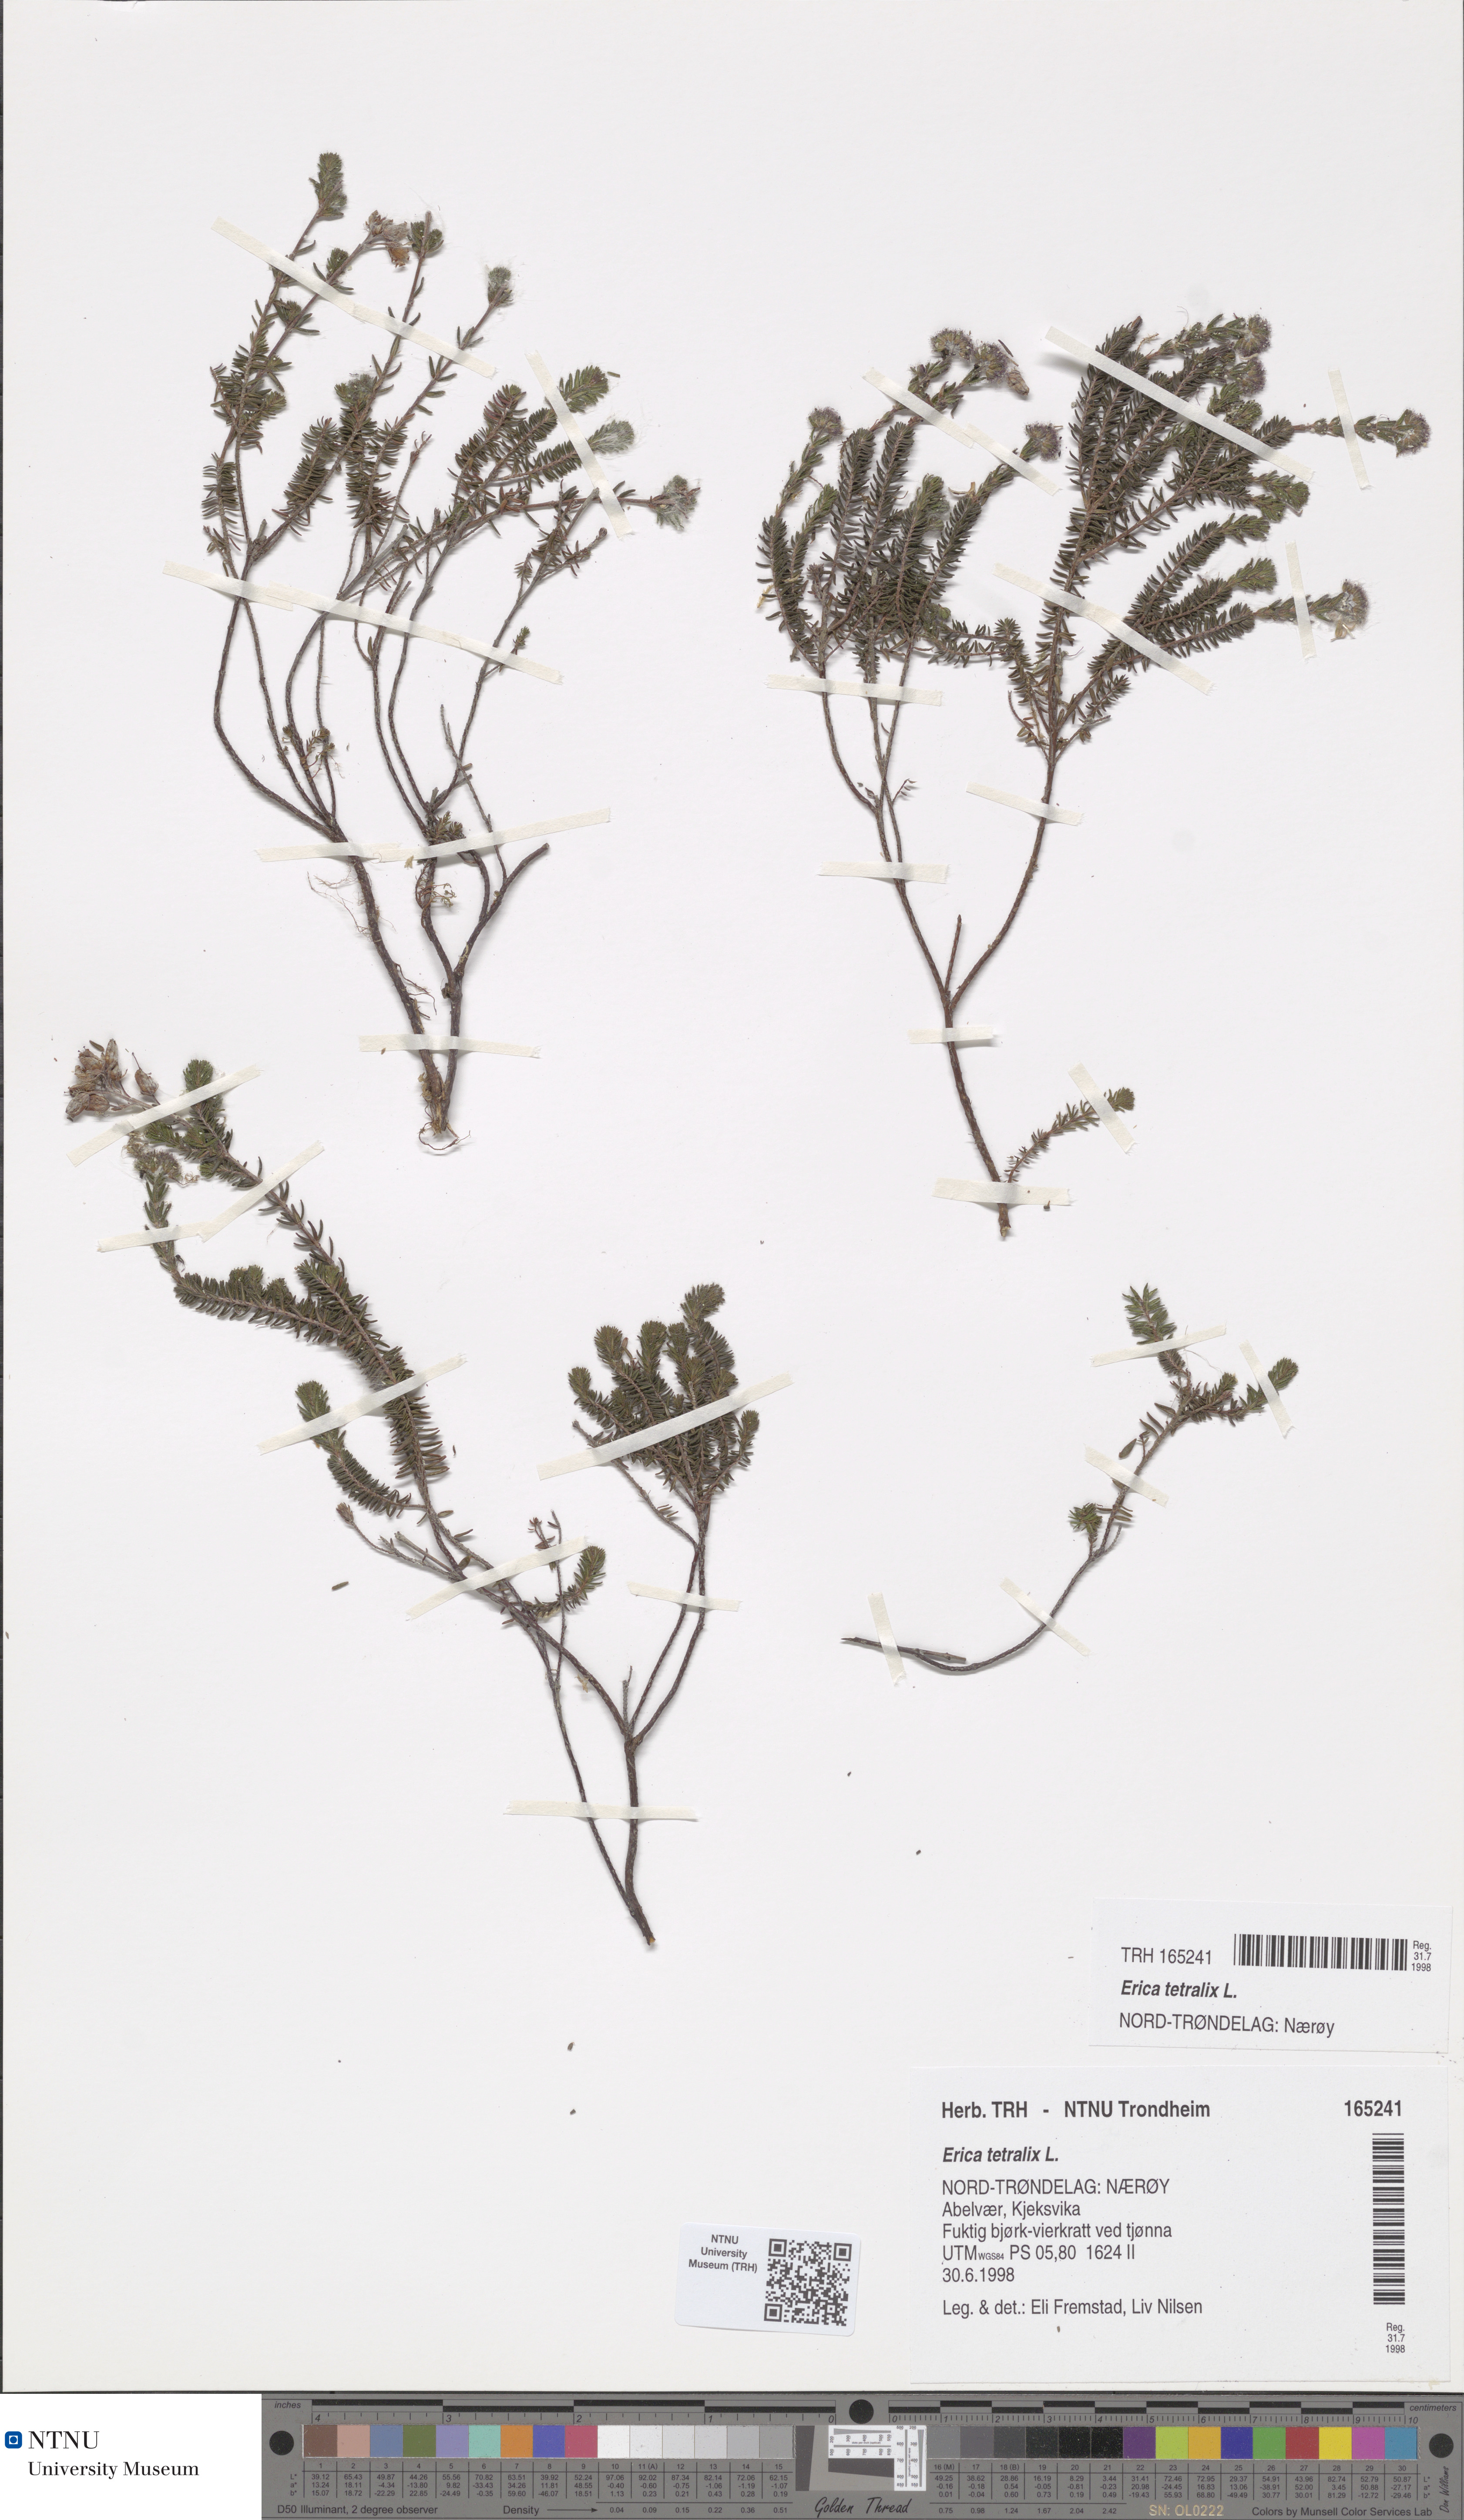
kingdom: Plantae
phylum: Tracheophyta
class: Magnoliopsida
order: Ericales
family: Ericaceae
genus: Erica
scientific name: Erica tetralix
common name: Cross-leaved heath
